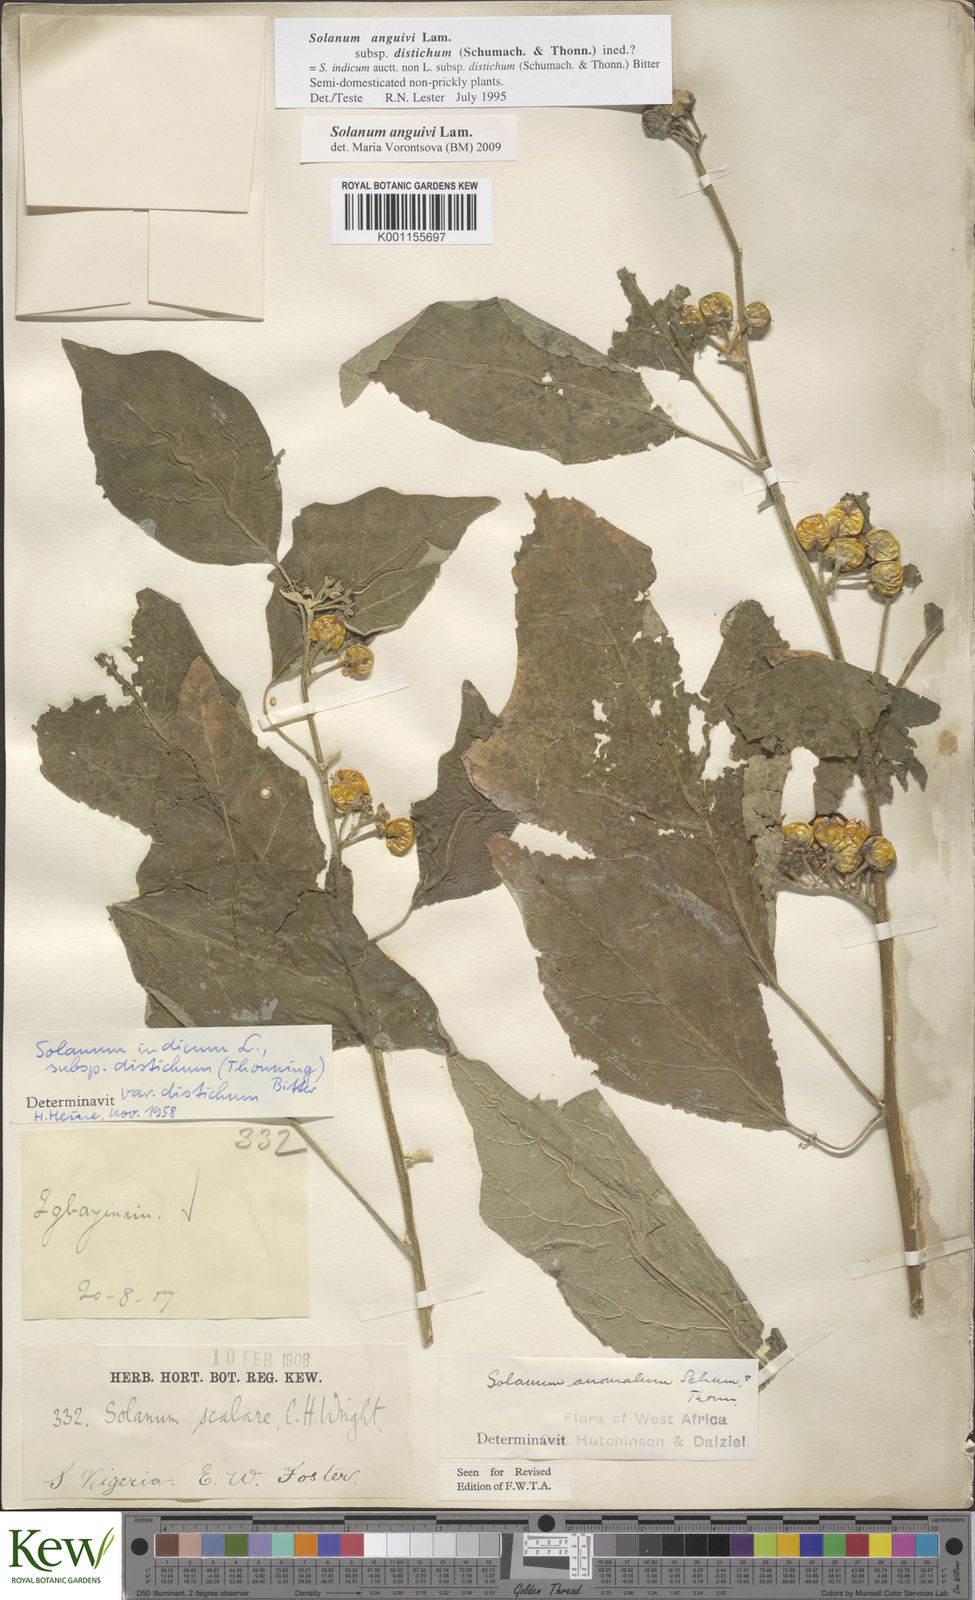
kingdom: Plantae
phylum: Tracheophyta
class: Magnoliopsida
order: Solanales
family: Solanaceae
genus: Solanum
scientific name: Solanum anguivi
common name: Forest bitterberry
